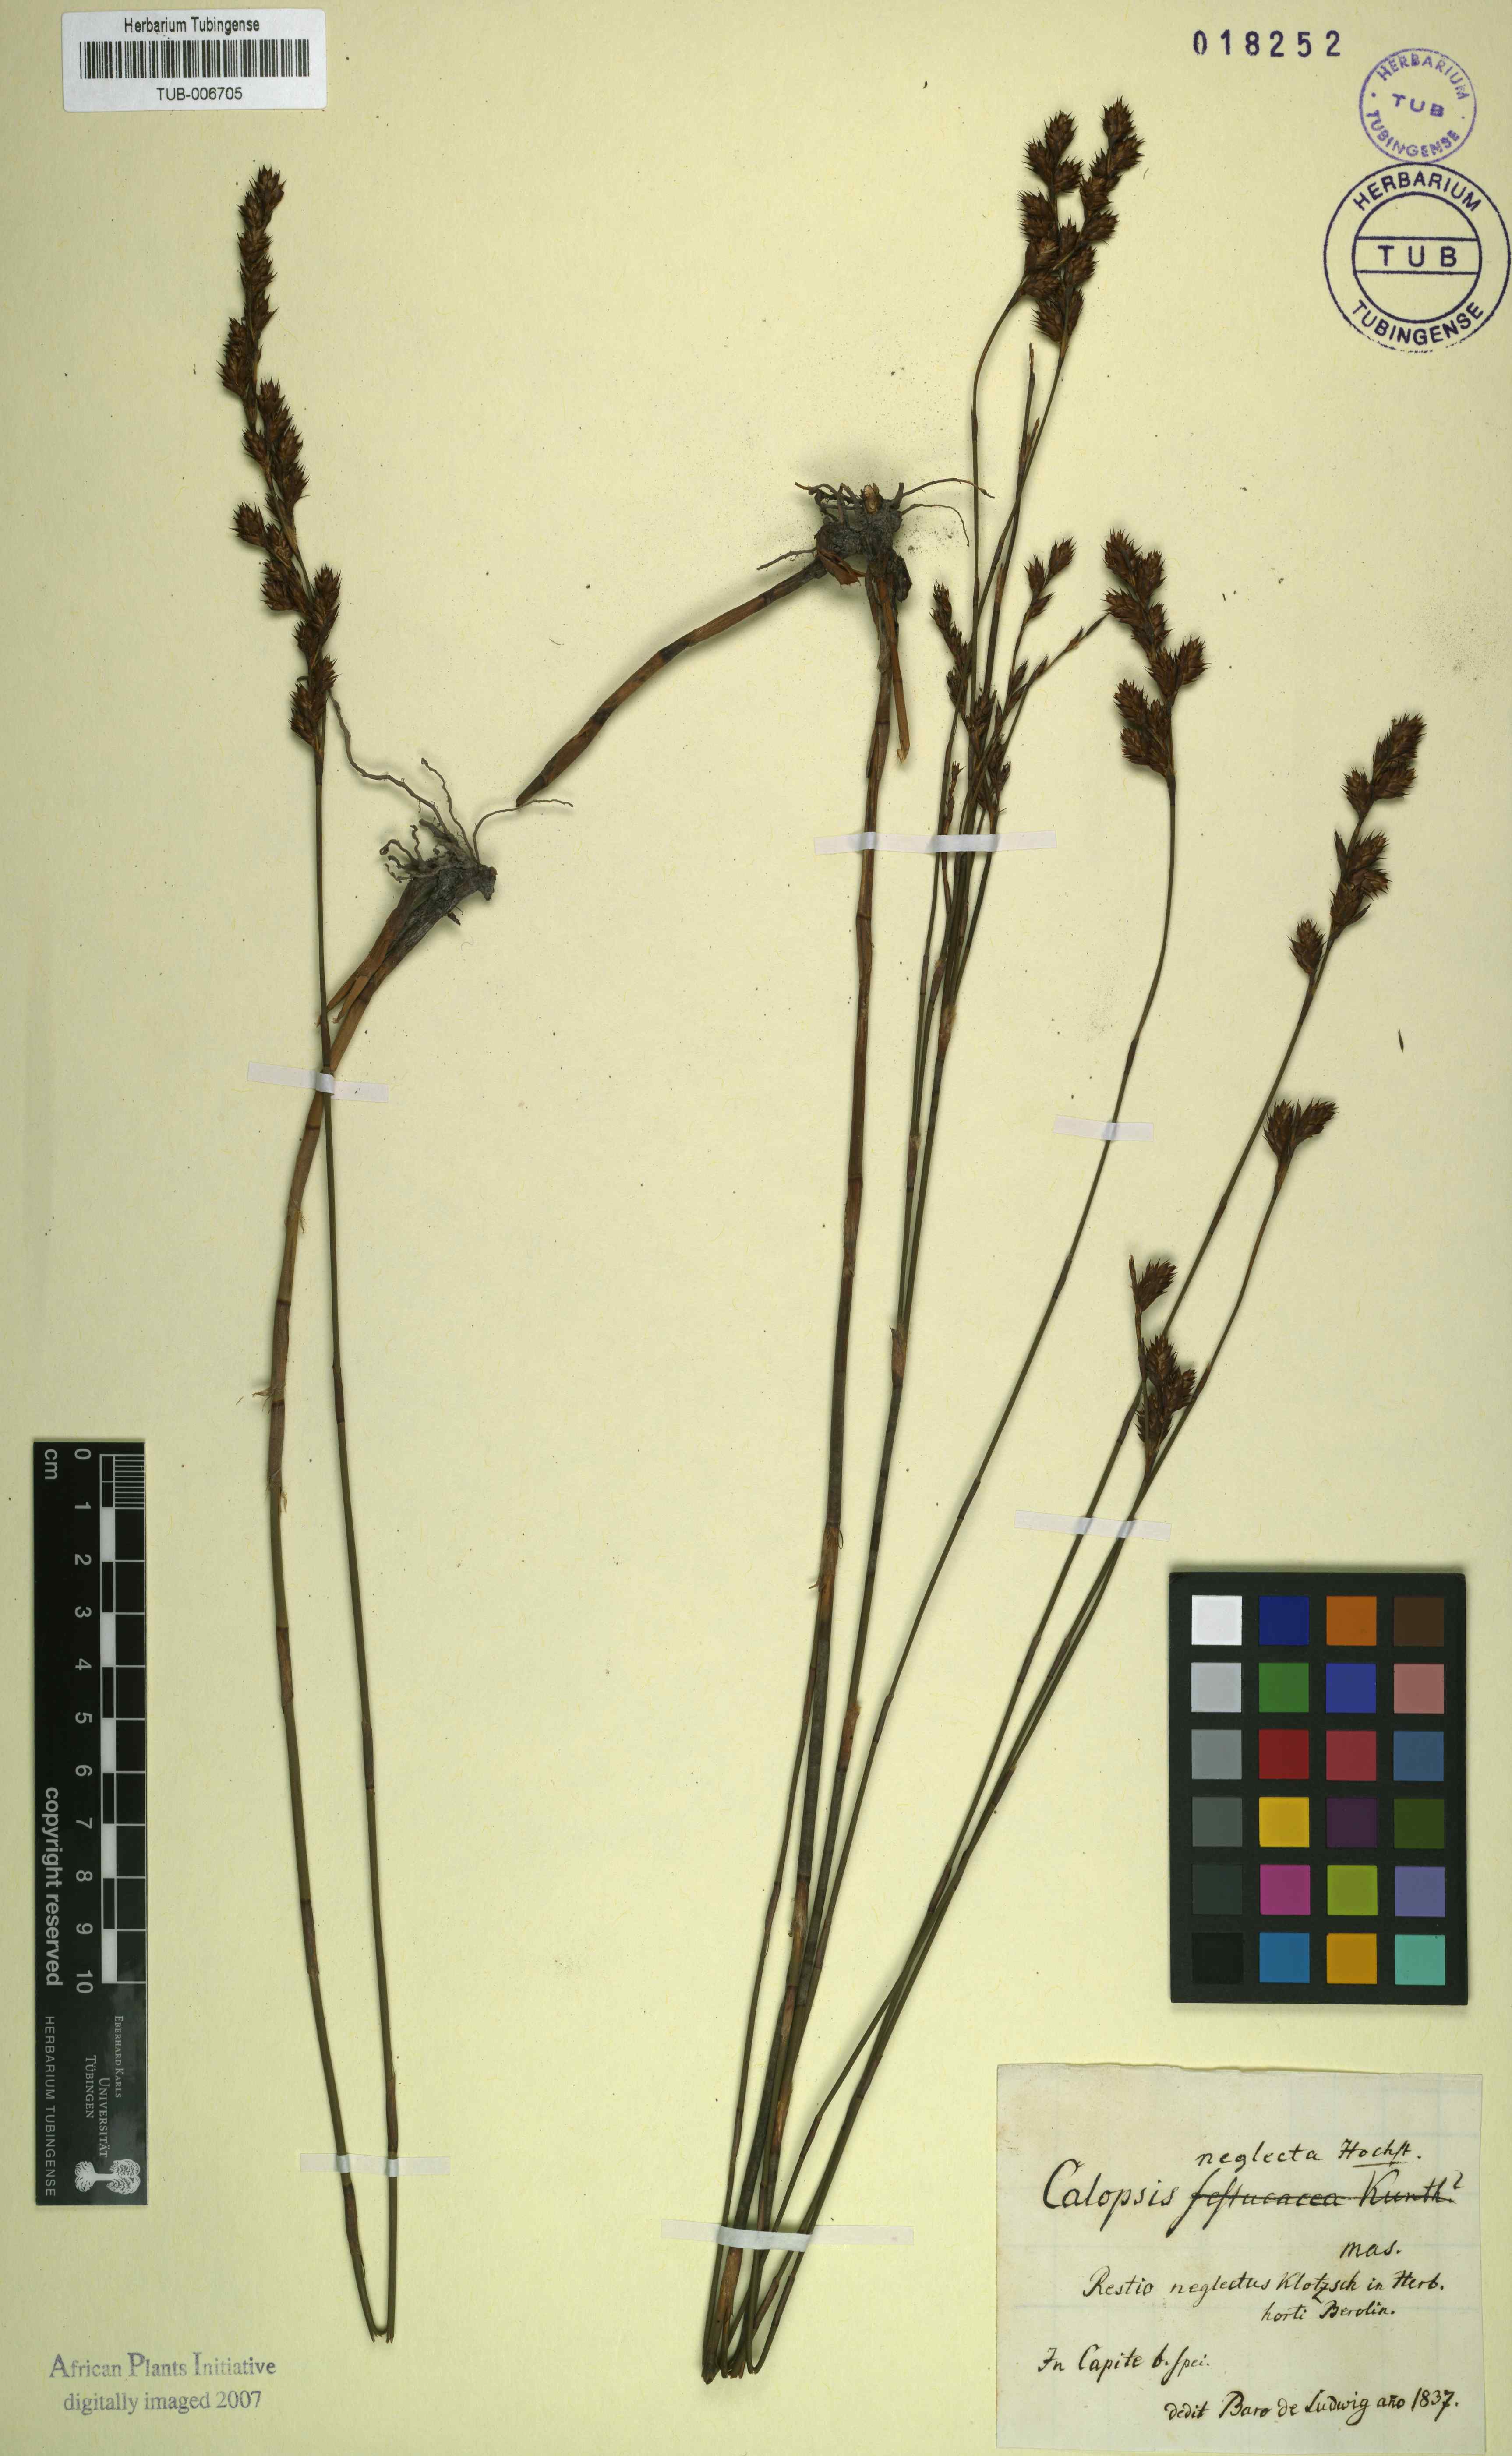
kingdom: Plantae
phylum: Tracheophyta
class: Liliopsida
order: Poales
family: Restionaceae
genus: Restio
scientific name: Restio multiflorus
